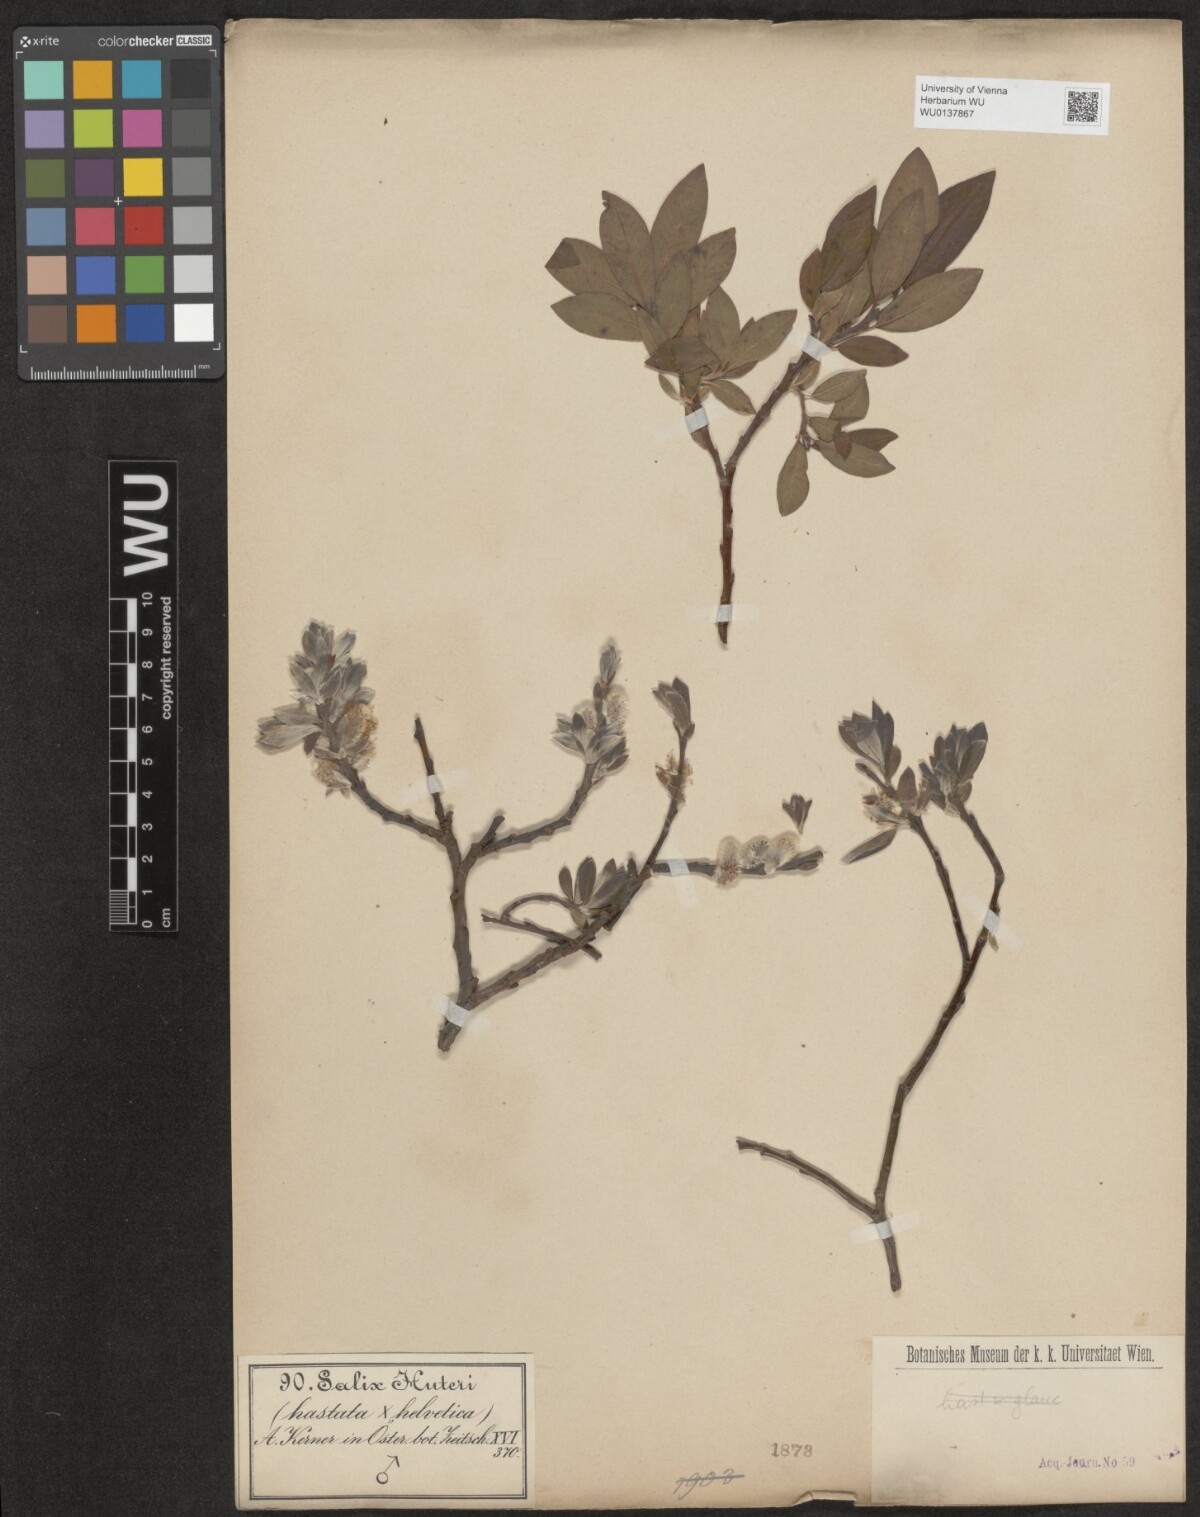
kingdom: Plantae
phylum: Tracheophyta
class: Magnoliopsida
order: Malpighiales
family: Salicaceae
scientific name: Salicaceae
